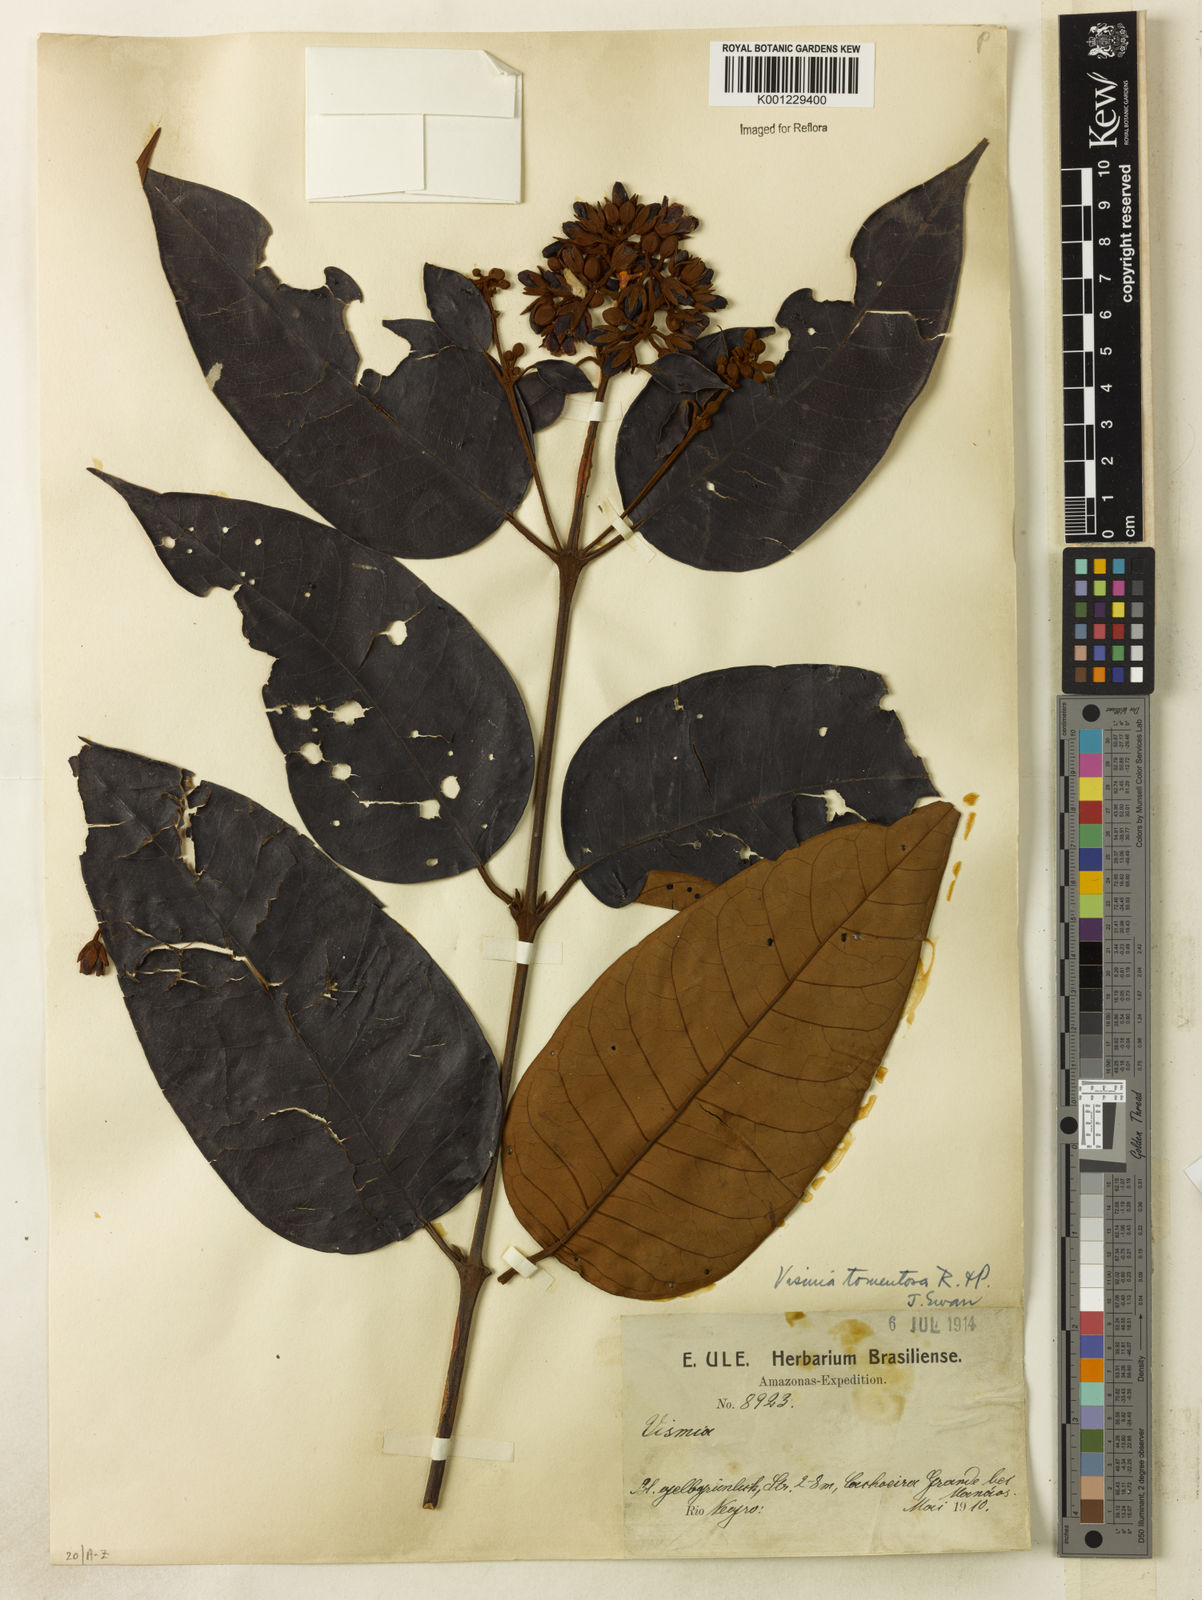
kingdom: Plantae
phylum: Tracheophyta
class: Magnoliopsida
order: Malpighiales
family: Hypericaceae
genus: Vismia
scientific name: Vismia ferruginea
